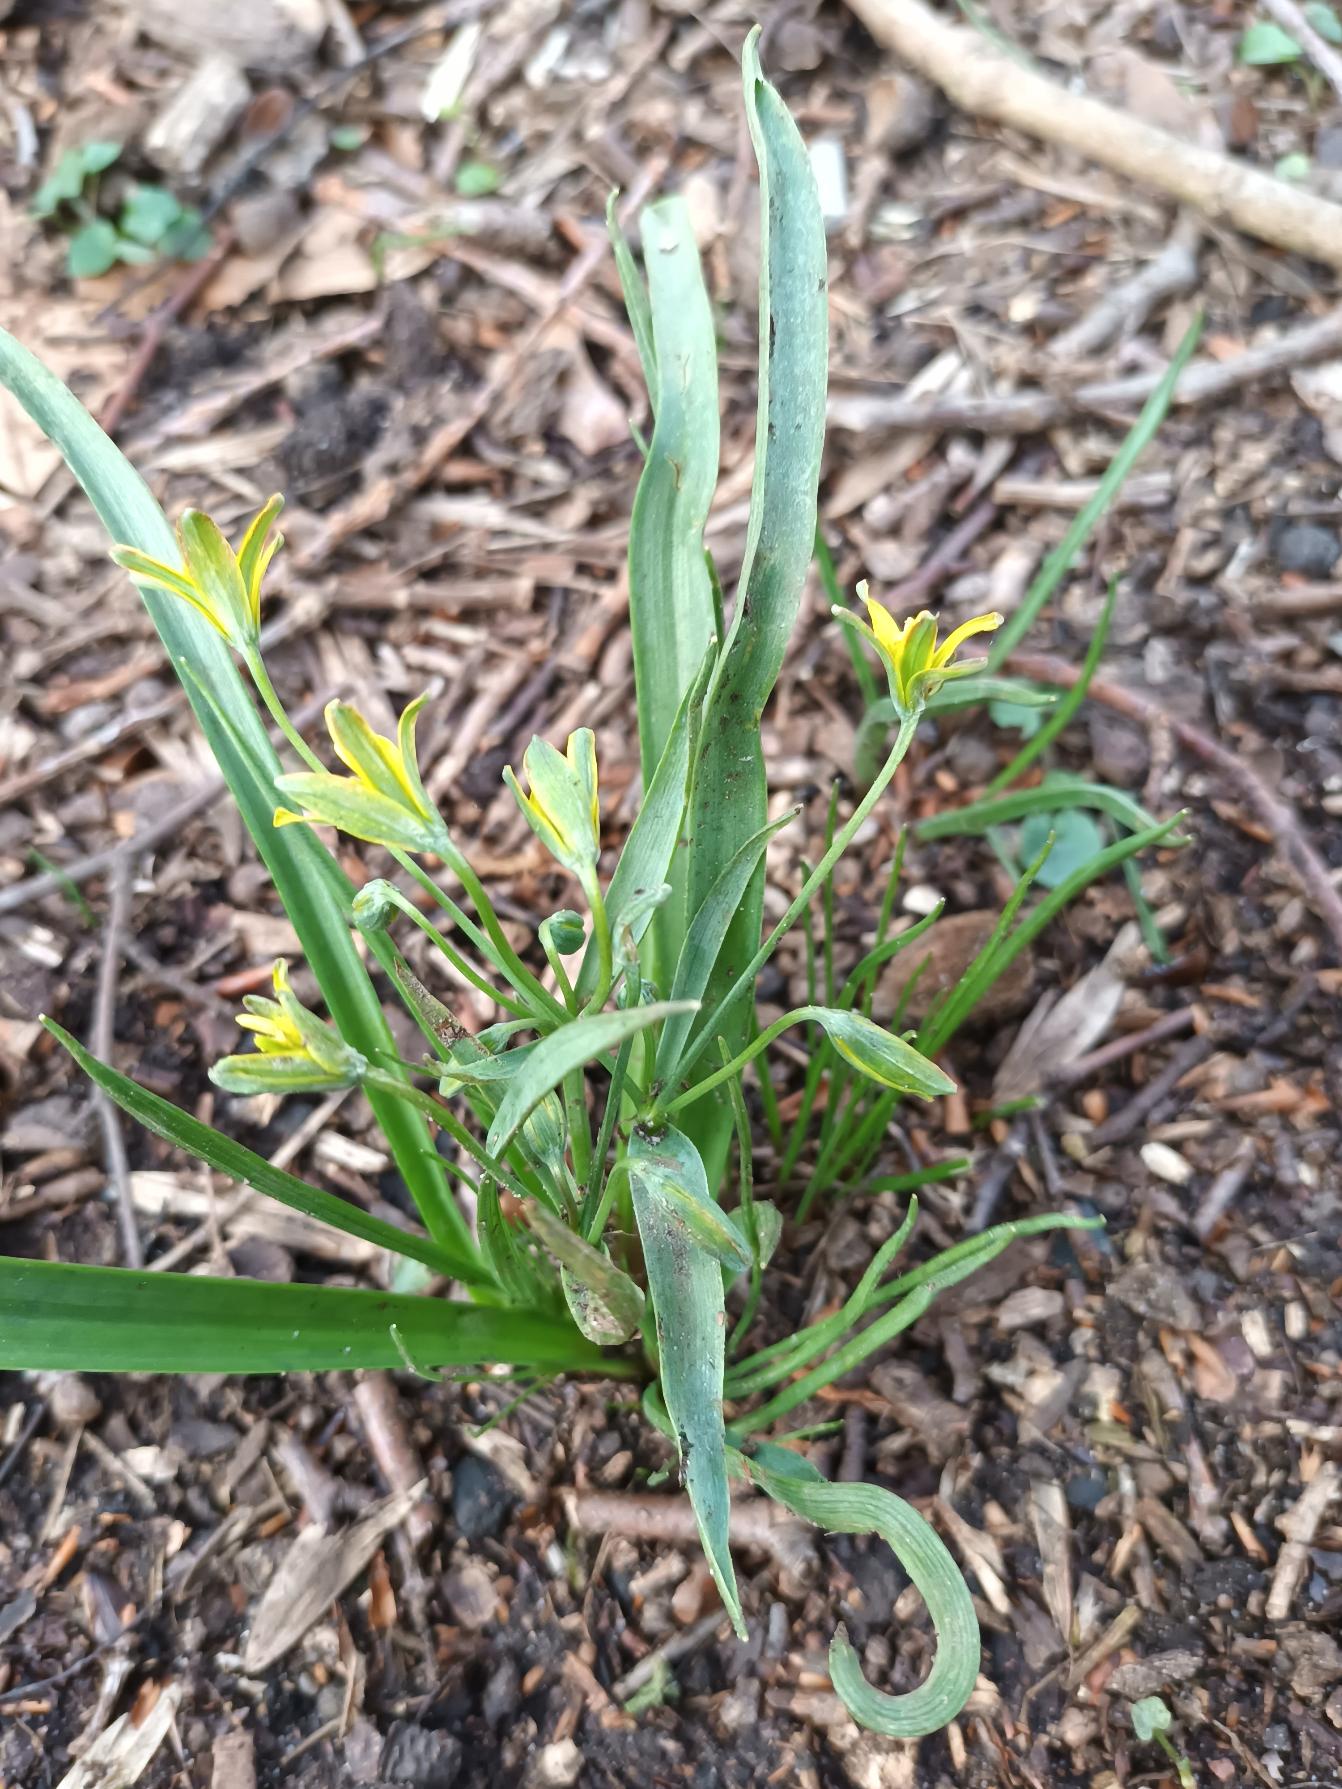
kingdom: Plantae
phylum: Tracheophyta
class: Liliopsida
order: Liliales
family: Liliaceae
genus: Gagea
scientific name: Gagea lutea
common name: Almindelig guldstjerne
